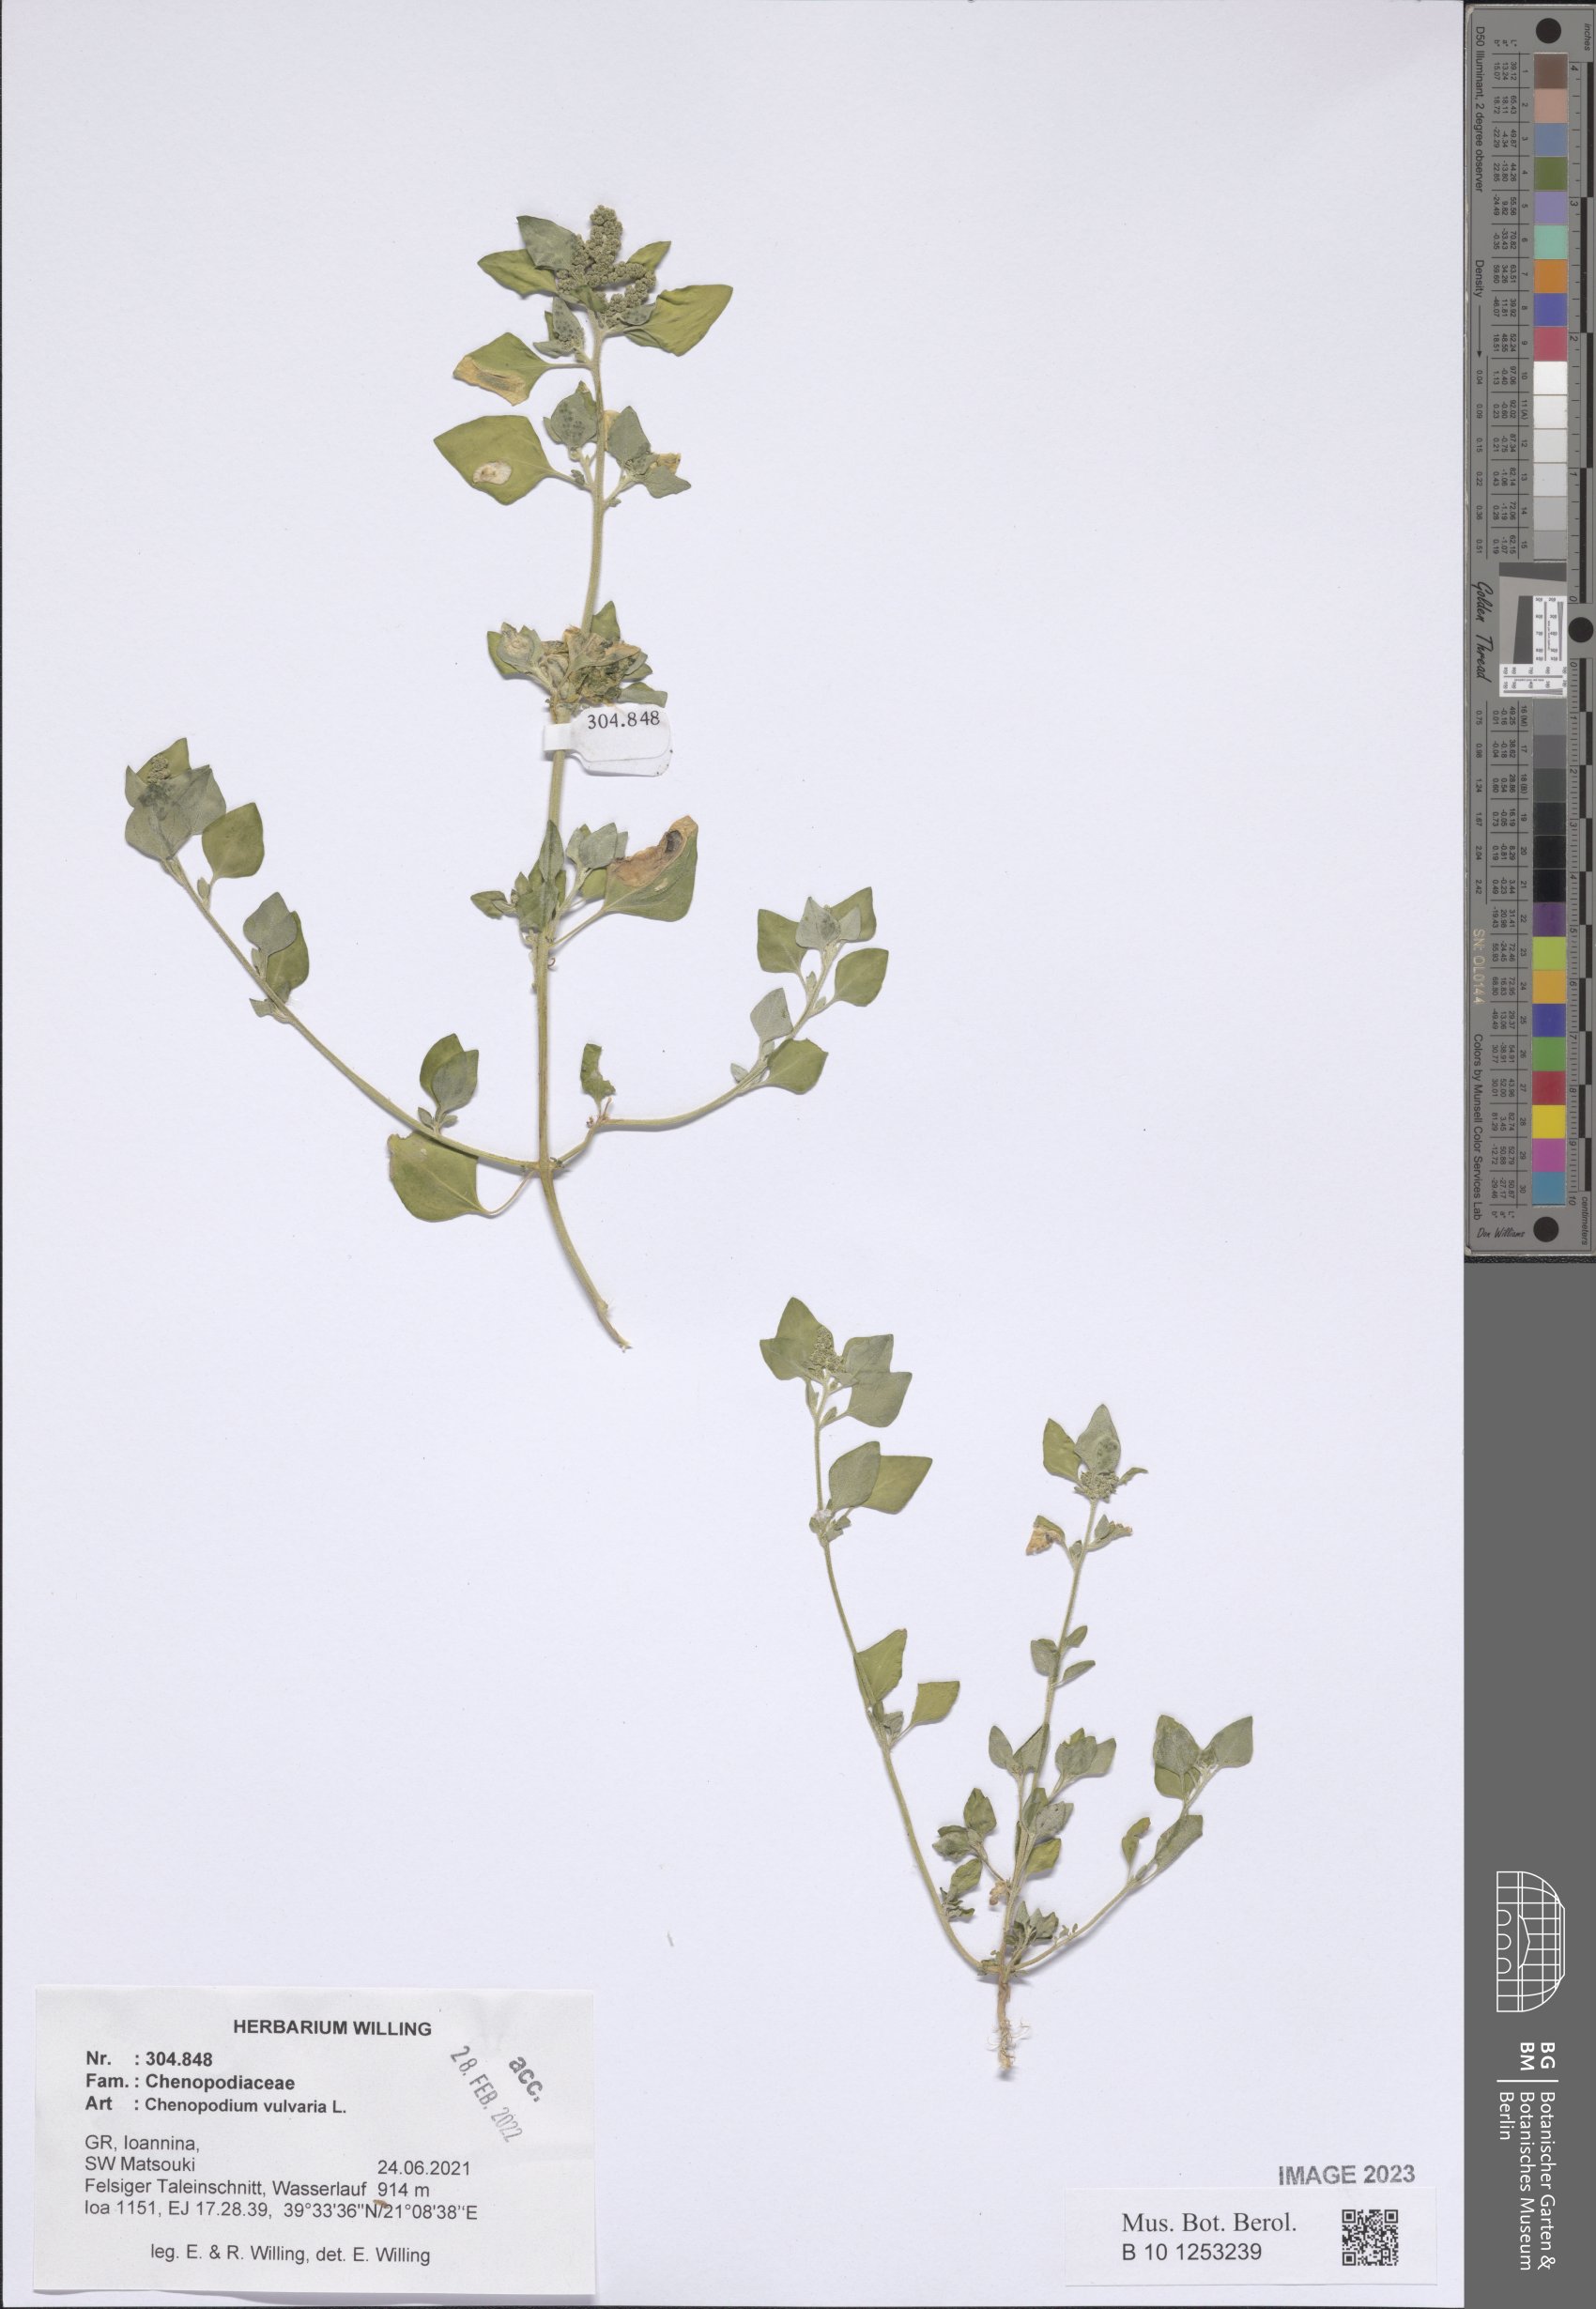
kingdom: Plantae
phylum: Tracheophyta
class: Magnoliopsida
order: Caryophyllales
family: Amaranthaceae
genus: Chenopodium
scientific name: Chenopodium vulvaria
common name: Stinking goosefoot
